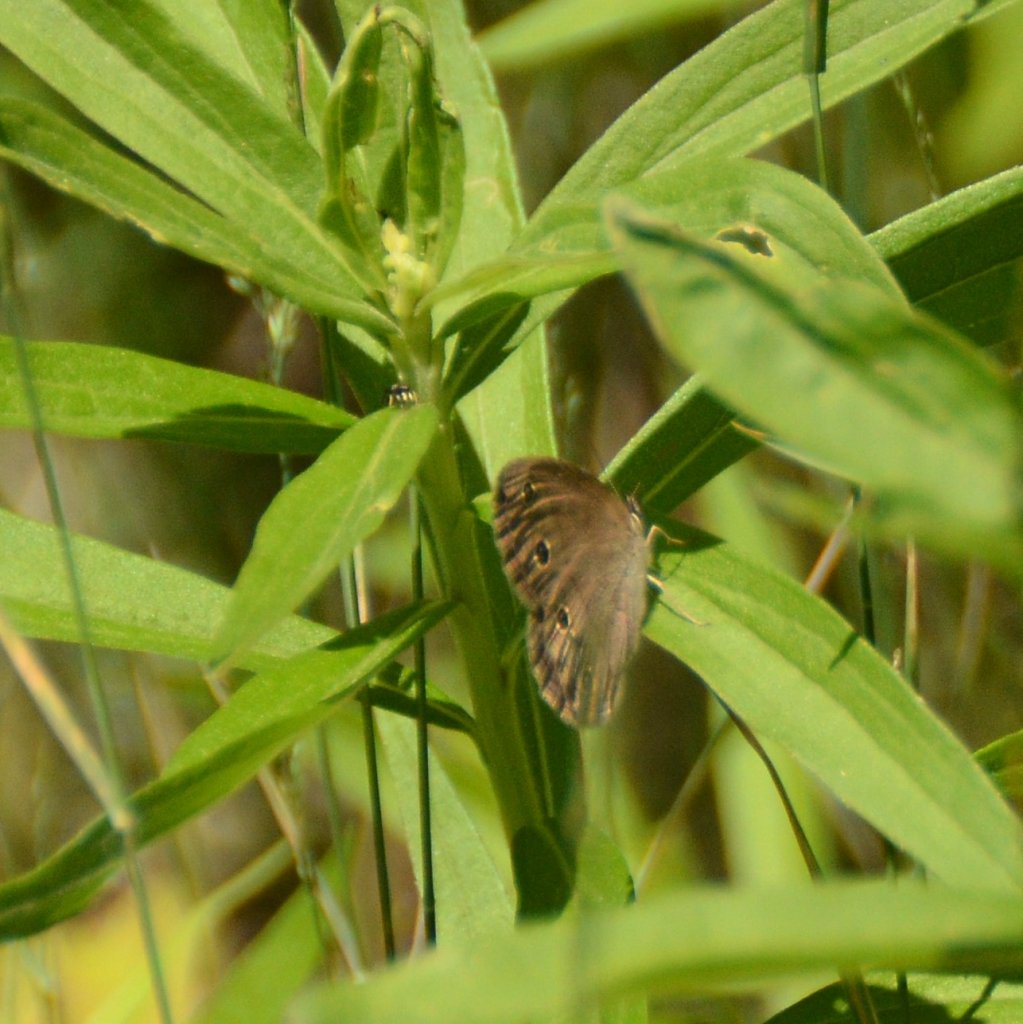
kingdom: Animalia
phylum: Arthropoda
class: Insecta
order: Lepidoptera
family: Nymphalidae
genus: Euptychia
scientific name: Euptychia cymela
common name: Little Wood Satyr
